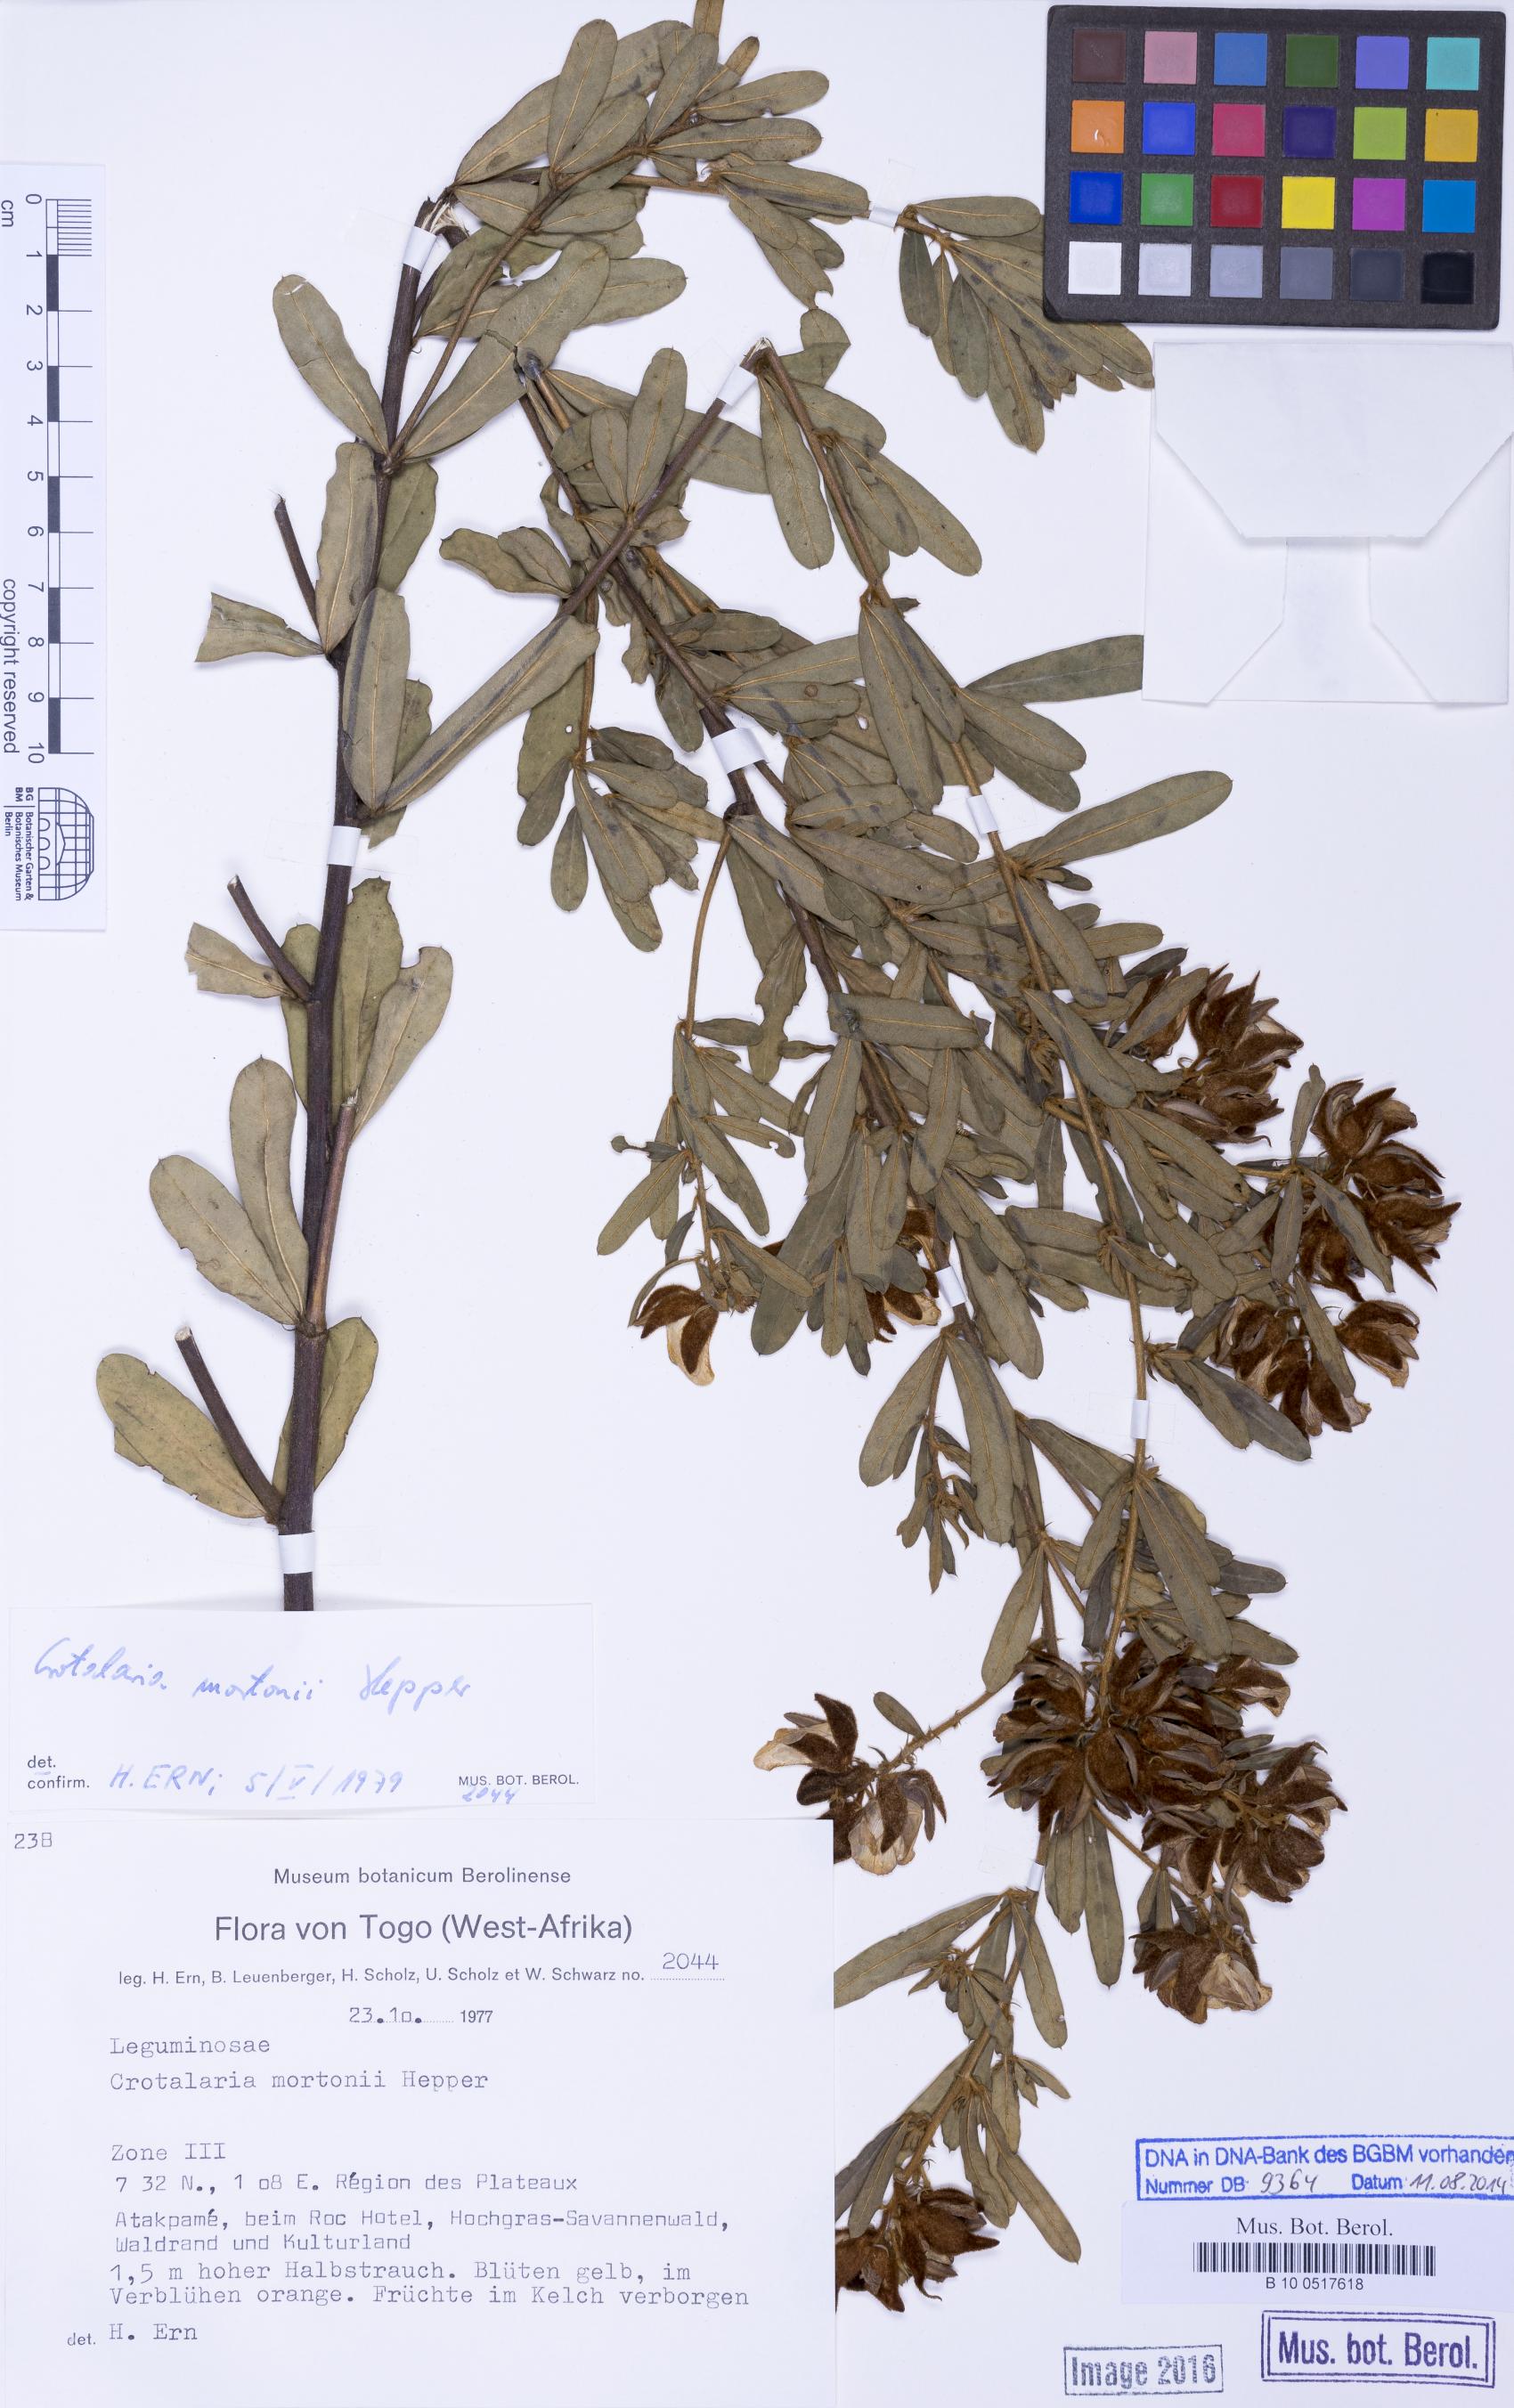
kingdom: Plantae
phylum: Tracheophyta
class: Magnoliopsida
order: Fabales
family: Fabaceae
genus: Crotalaria
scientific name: Crotalaria mortonii
